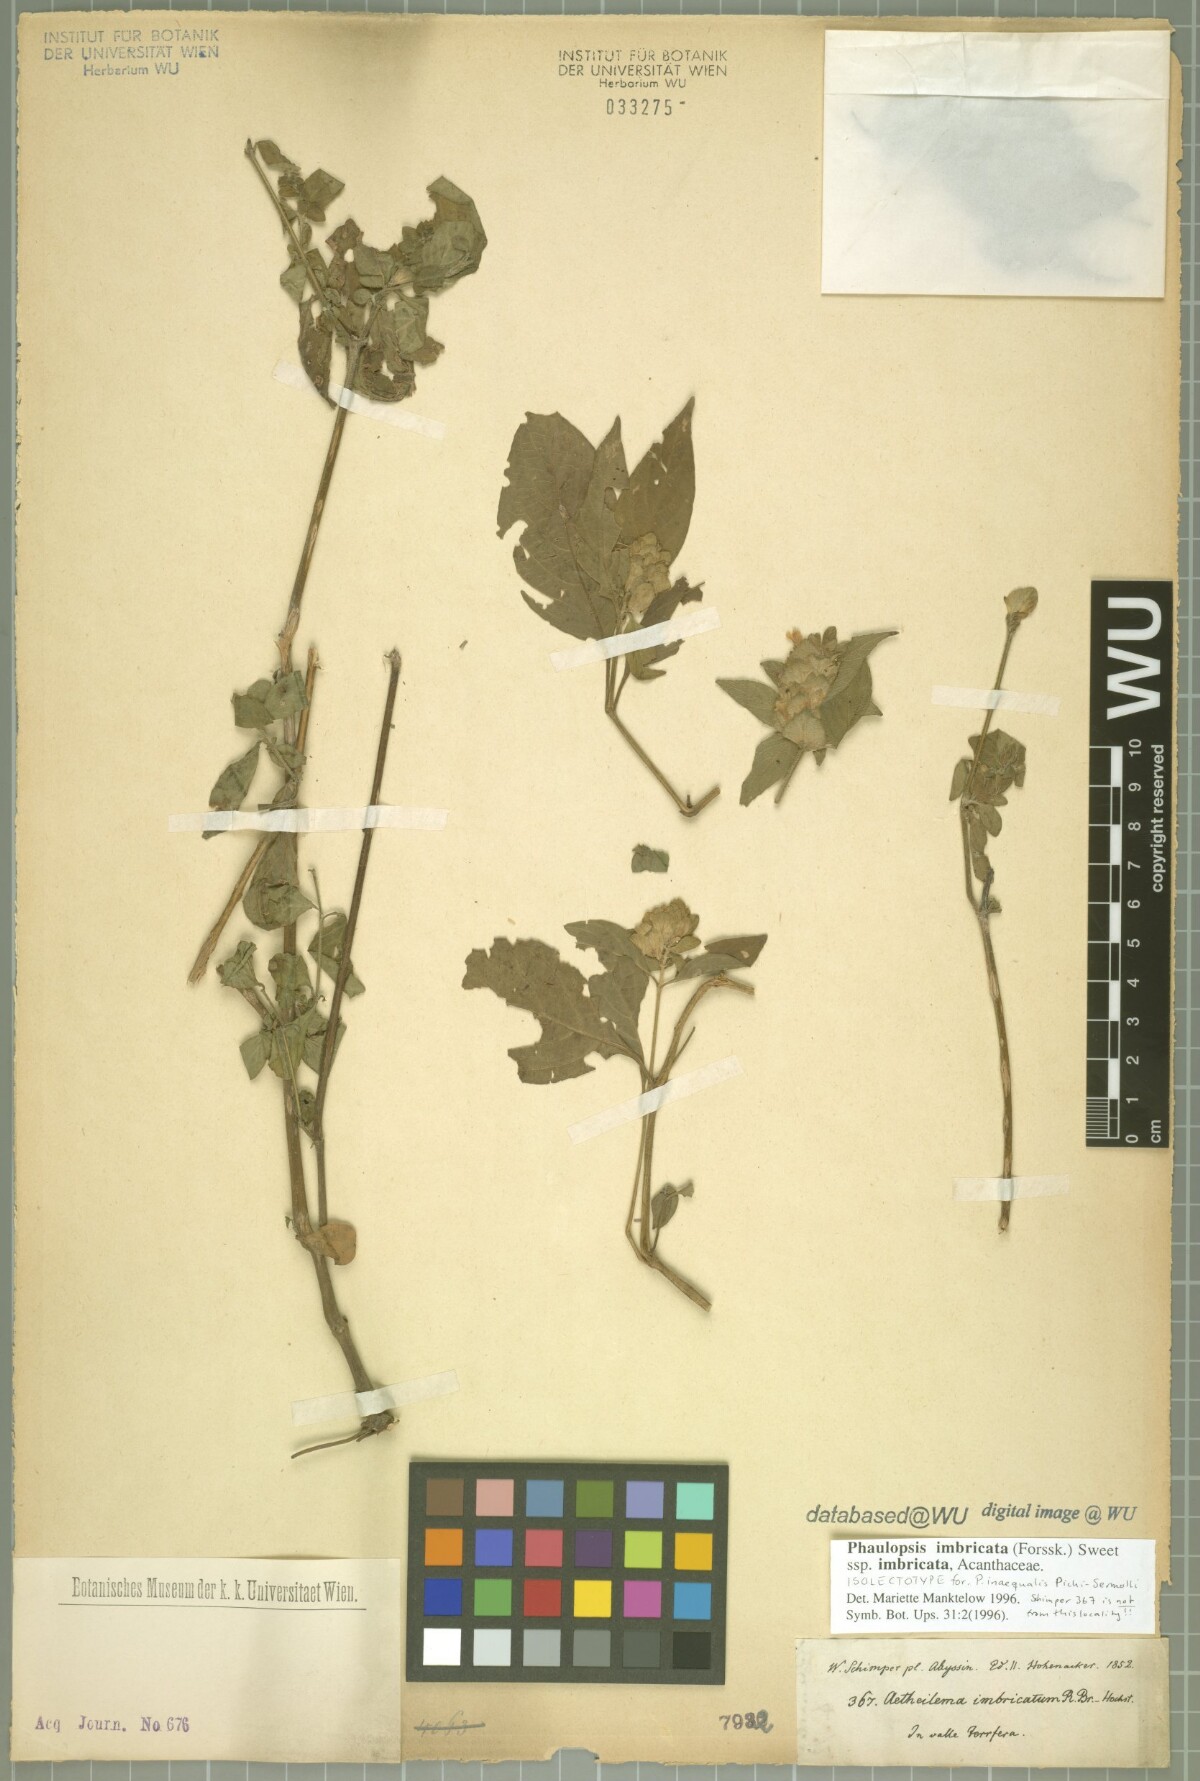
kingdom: Plantae
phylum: Tracheophyta
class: Magnoliopsida
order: Lamiales
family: Acanthaceae
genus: Phaulopsis
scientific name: Phaulopsis imbricata
